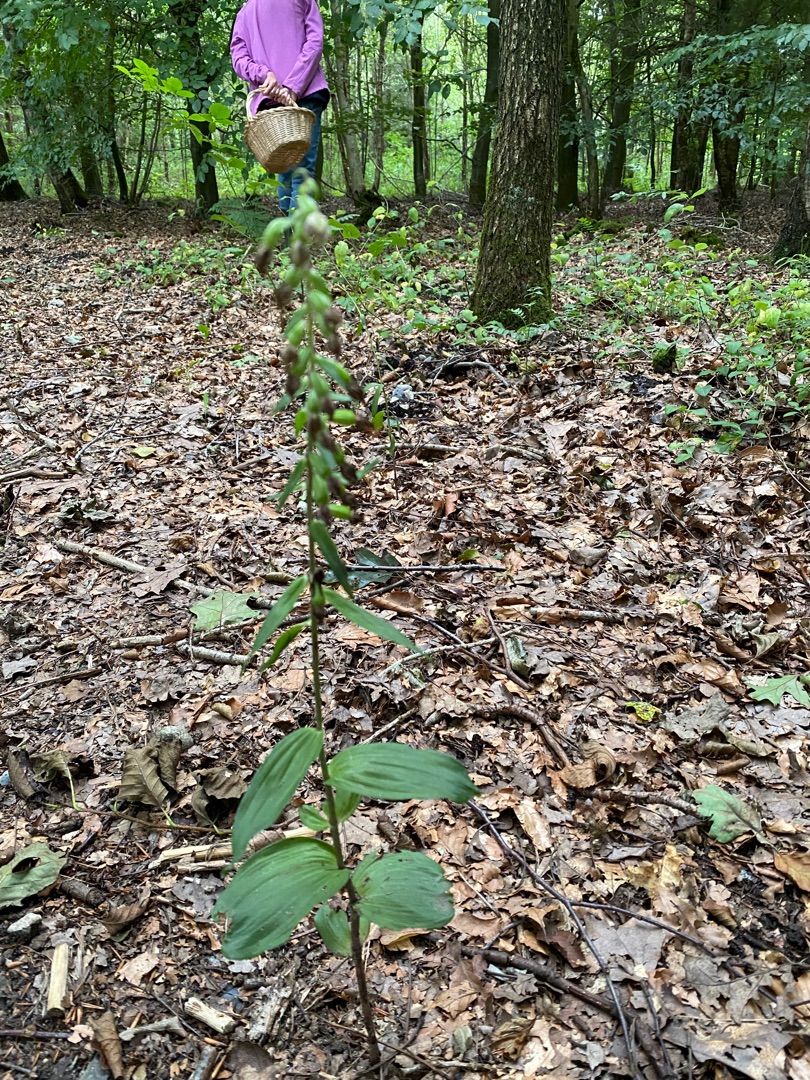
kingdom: Plantae
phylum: Tracheophyta
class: Liliopsida
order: Asparagales
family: Orchidaceae
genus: Epipactis
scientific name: Epipactis helleborine
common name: Skov-hullæbe
